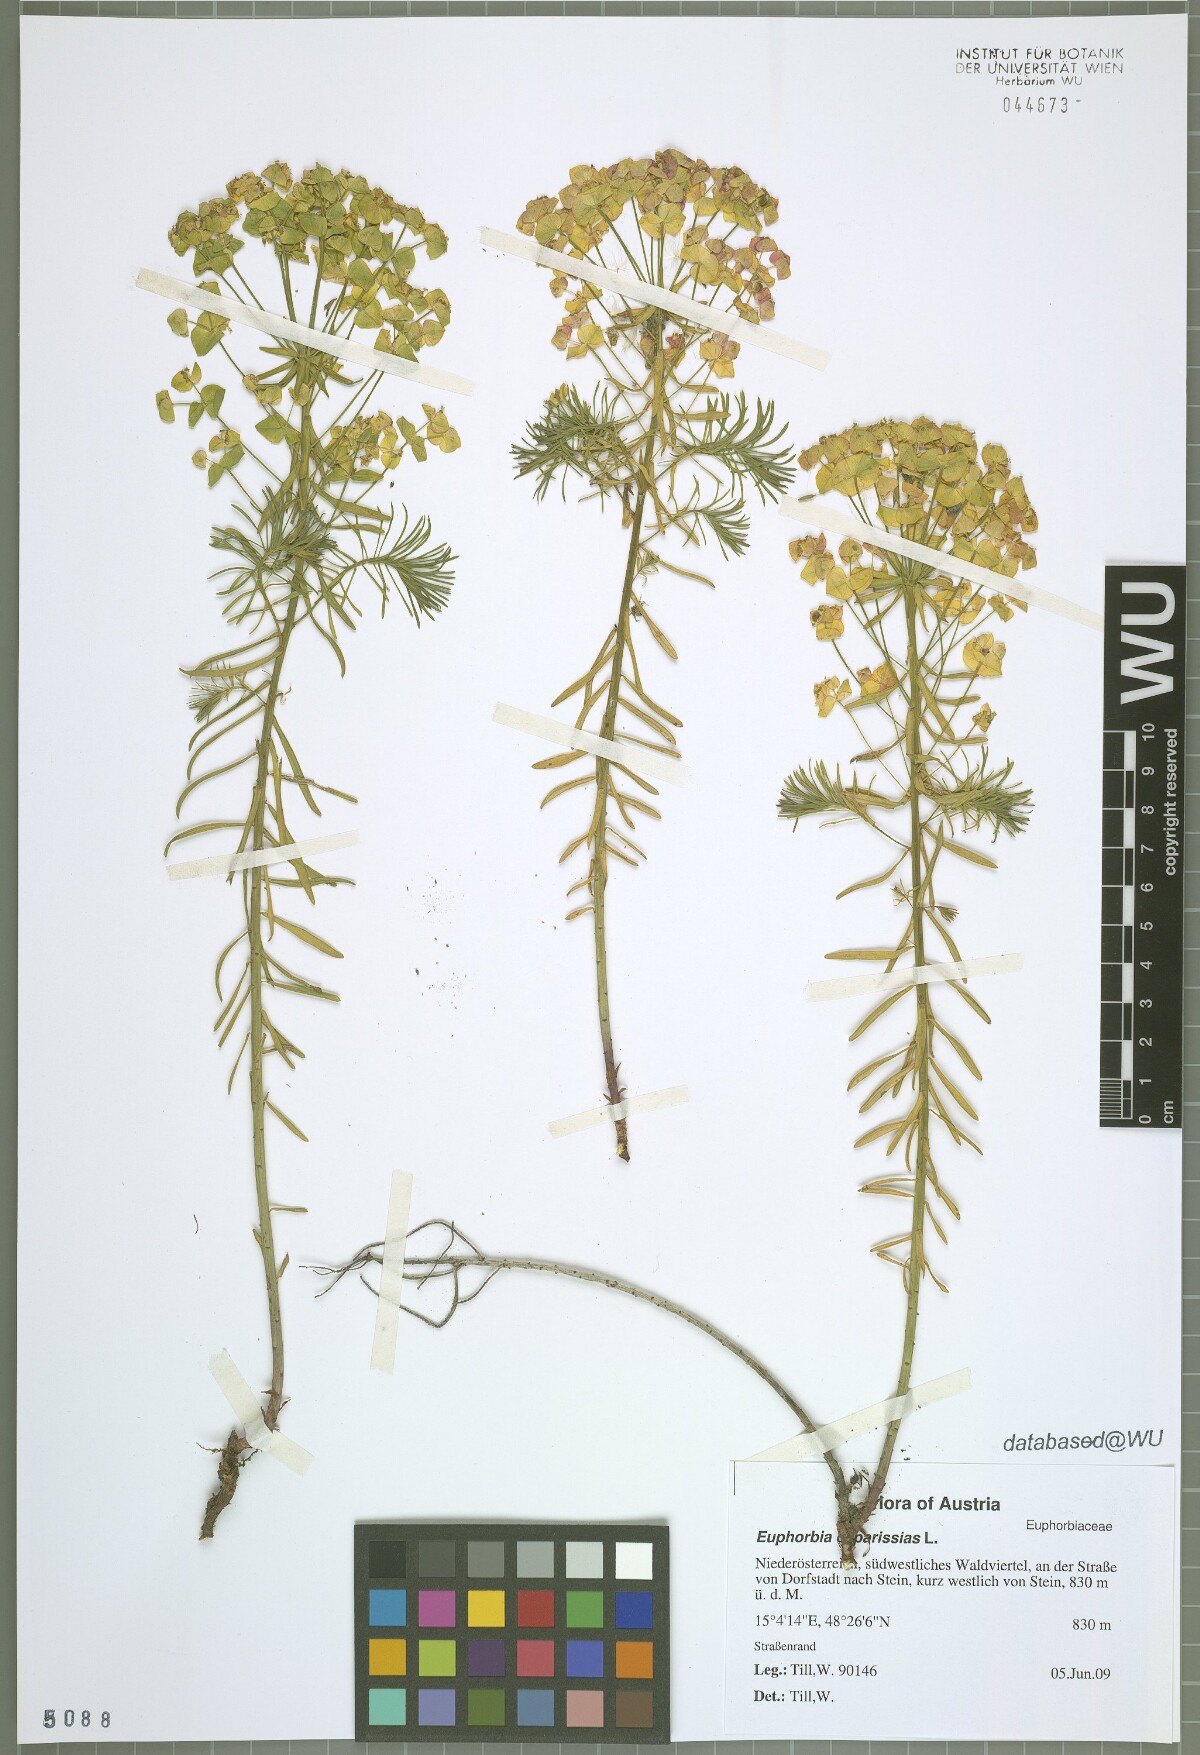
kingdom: Plantae
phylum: Tracheophyta
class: Magnoliopsida
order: Malpighiales
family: Euphorbiaceae
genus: Euphorbia
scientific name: Euphorbia cyparissias
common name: Cypress spurge
